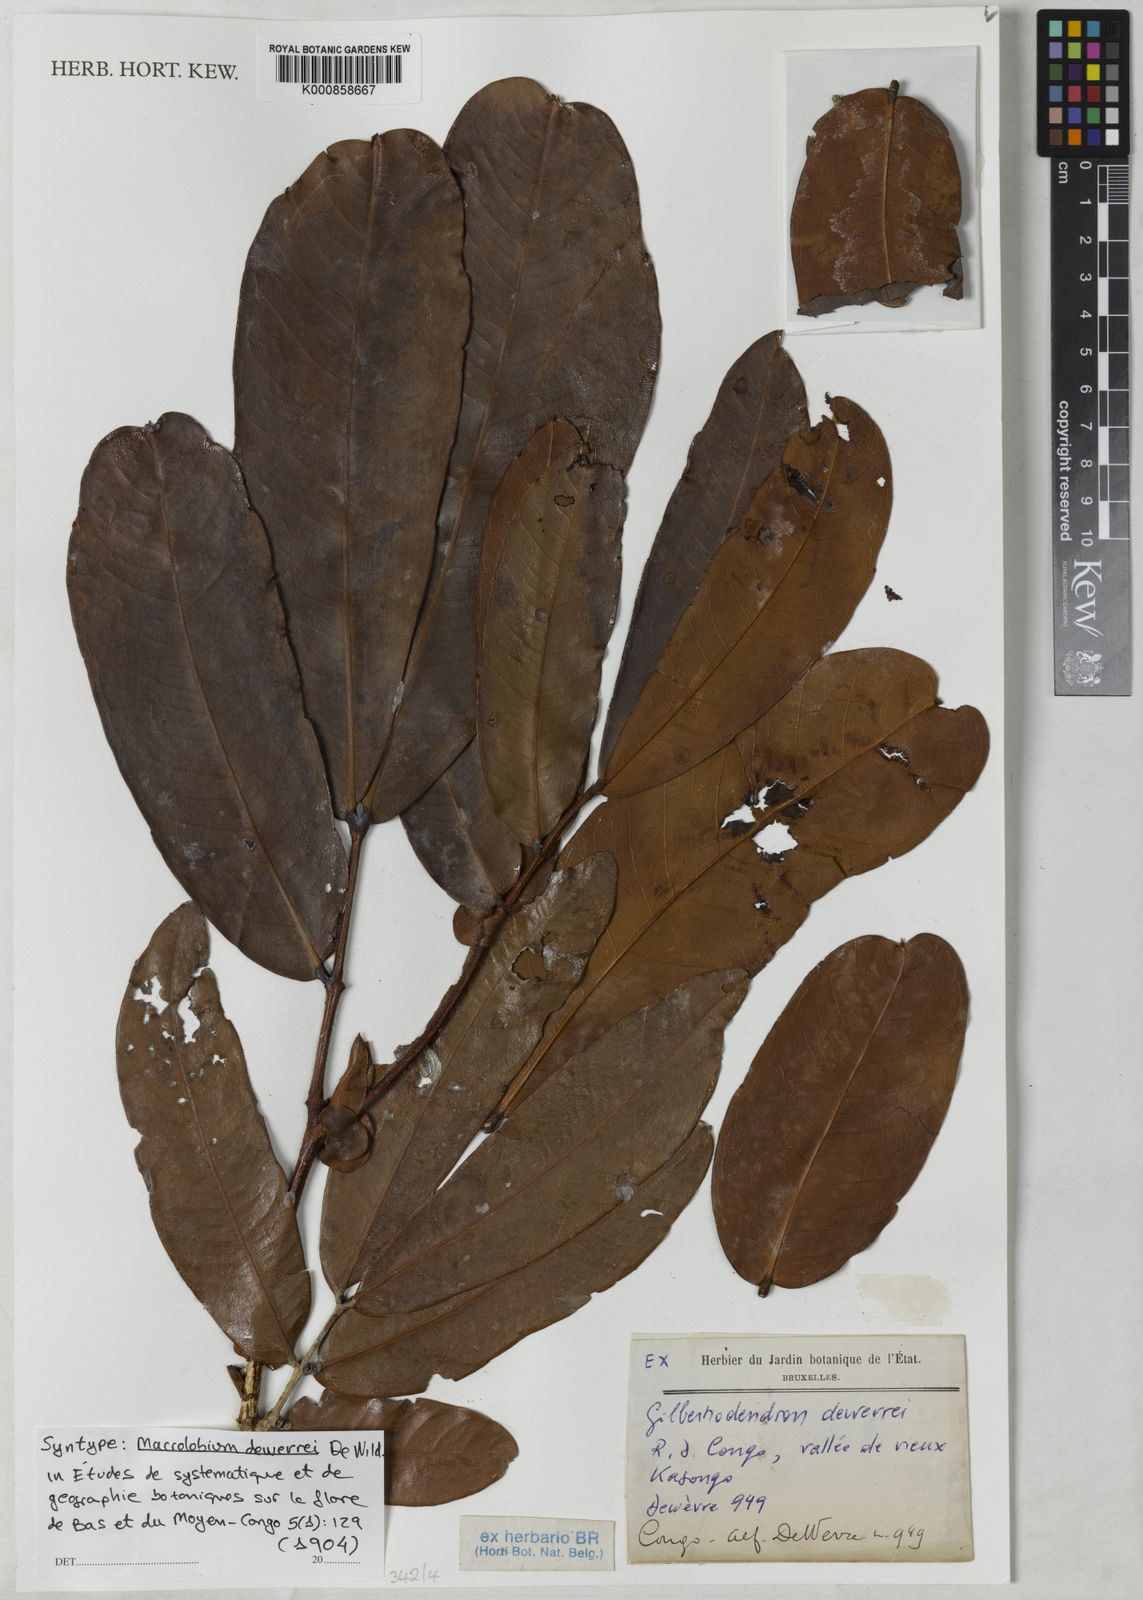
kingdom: Plantae
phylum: Tracheophyta
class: Magnoliopsida
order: Fabales
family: Fabaceae
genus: Gilbertiodendron
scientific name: Gilbertiodendron dewevrei
